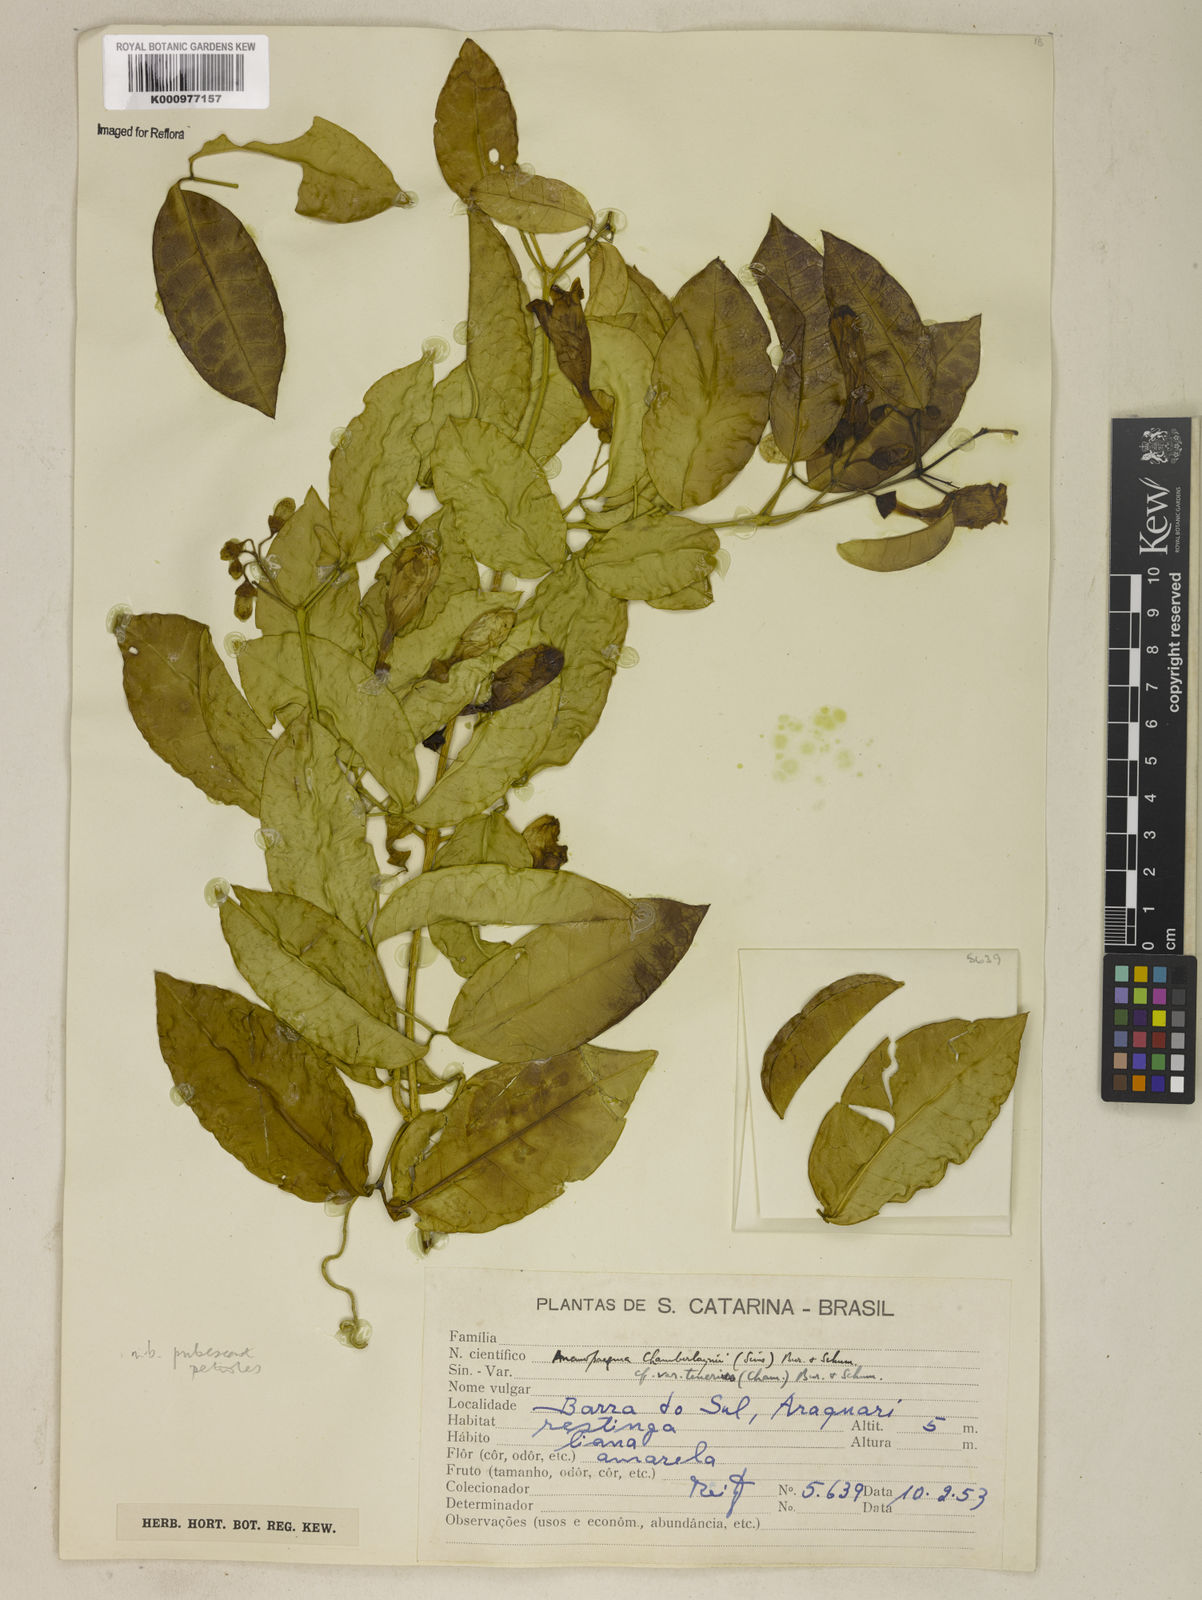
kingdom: Plantae
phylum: Tracheophyta
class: Magnoliopsida
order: Lamiales
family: Bignoniaceae
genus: Anemopaegma
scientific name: Anemopaegma chamberlaynii
